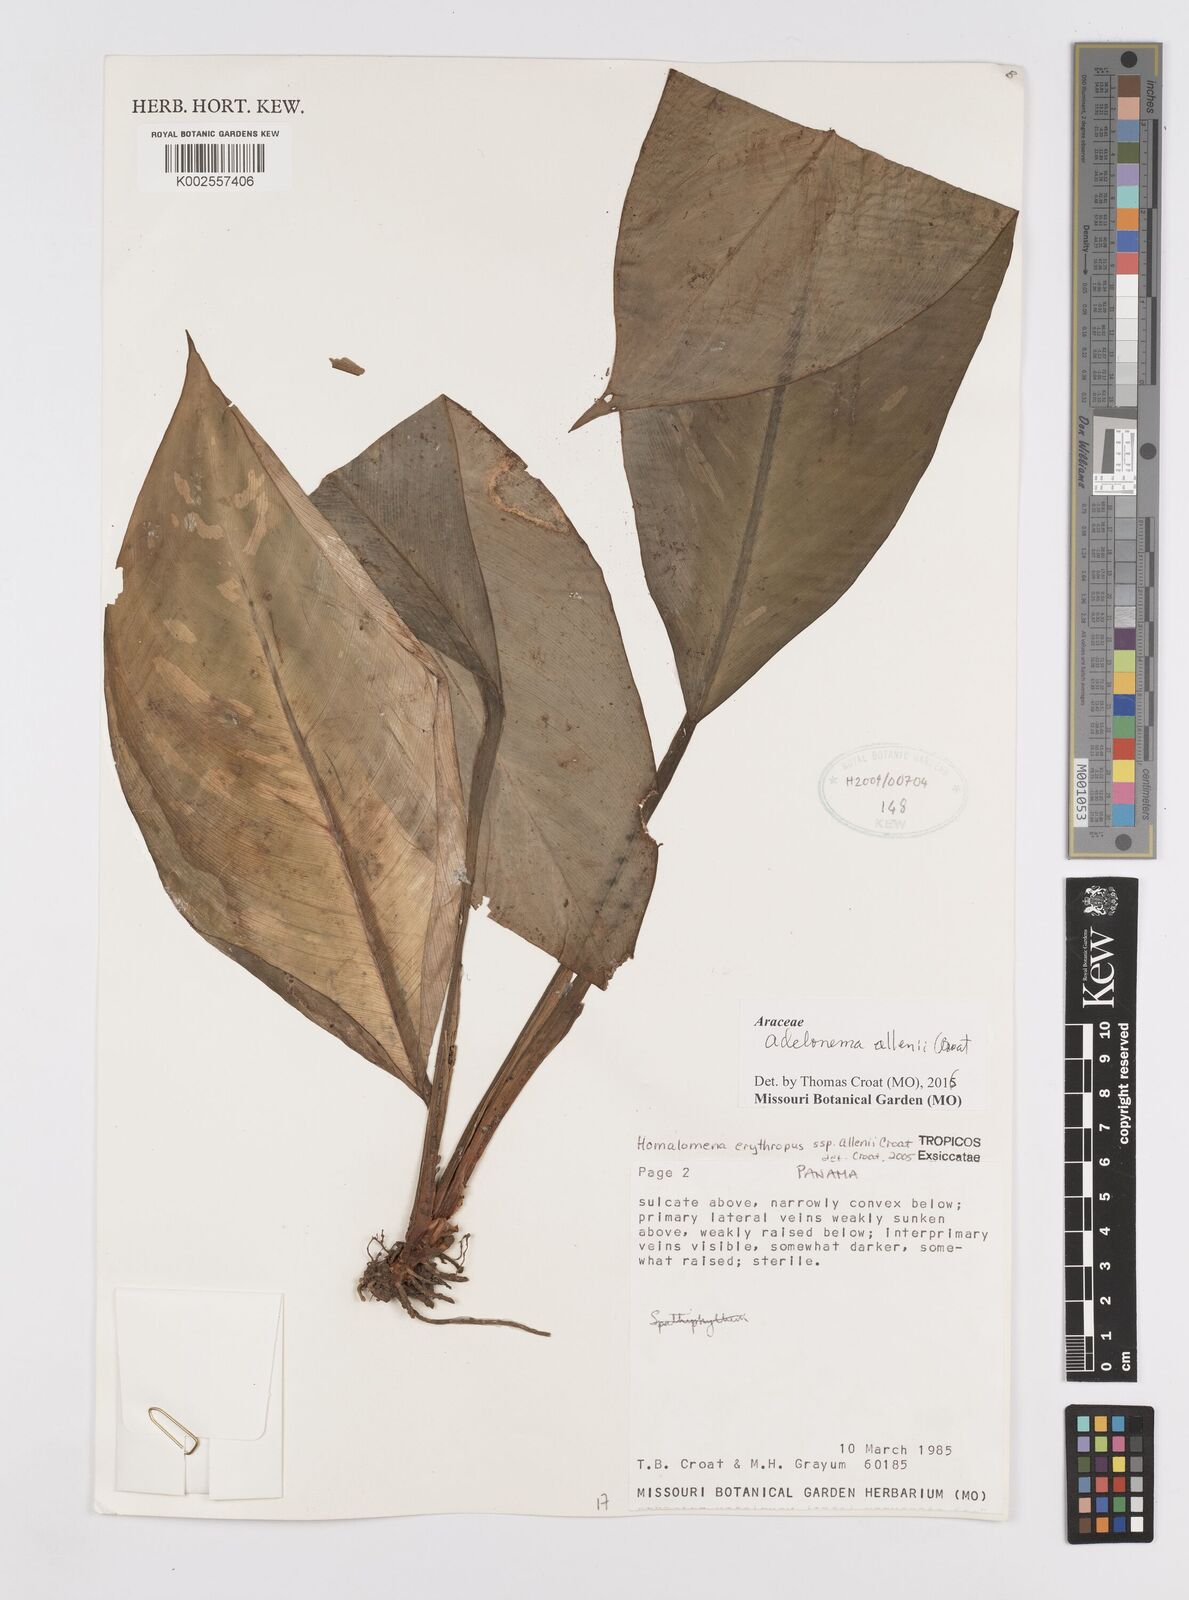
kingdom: Plantae
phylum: Tracheophyta
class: Liliopsida
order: Alismatales
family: Araceae
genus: Adelonema
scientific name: Adelonema allenii
